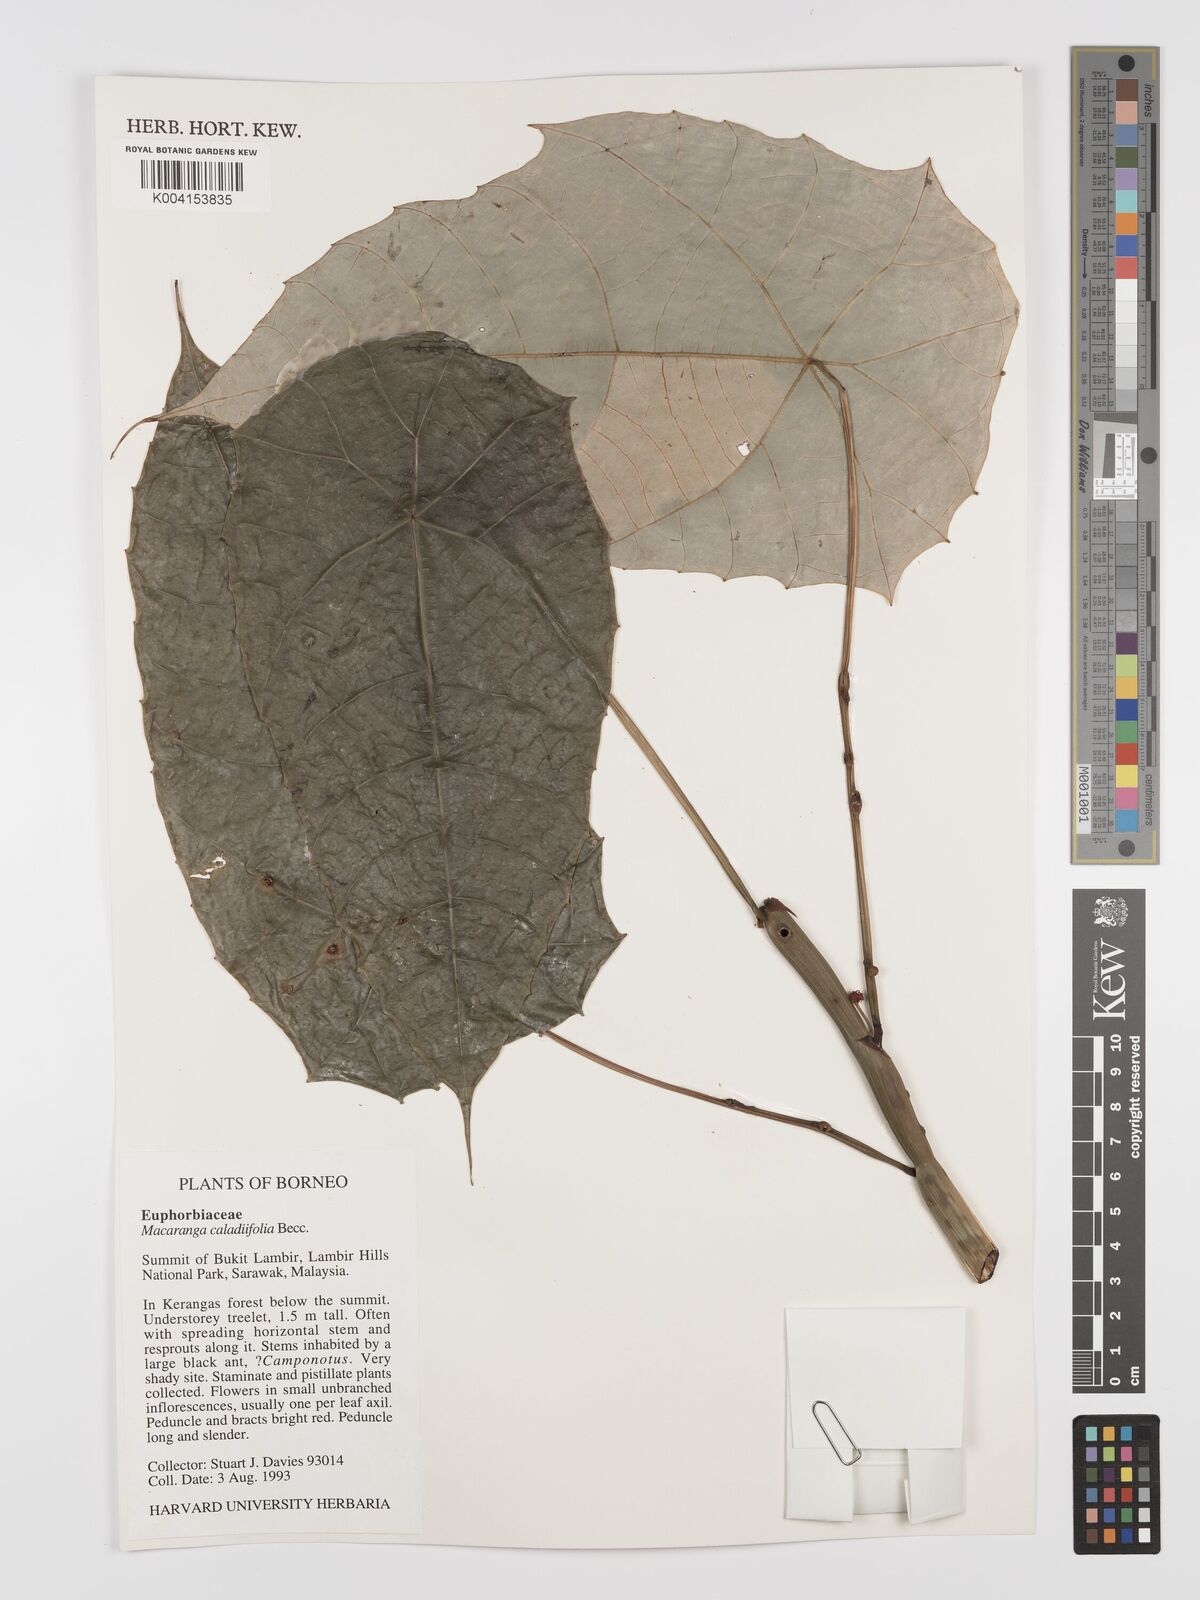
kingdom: Plantae
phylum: Tracheophyta
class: Magnoliopsida
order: Malpighiales
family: Euphorbiaceae
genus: Macaranga
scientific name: Macaranga caladiifolia
